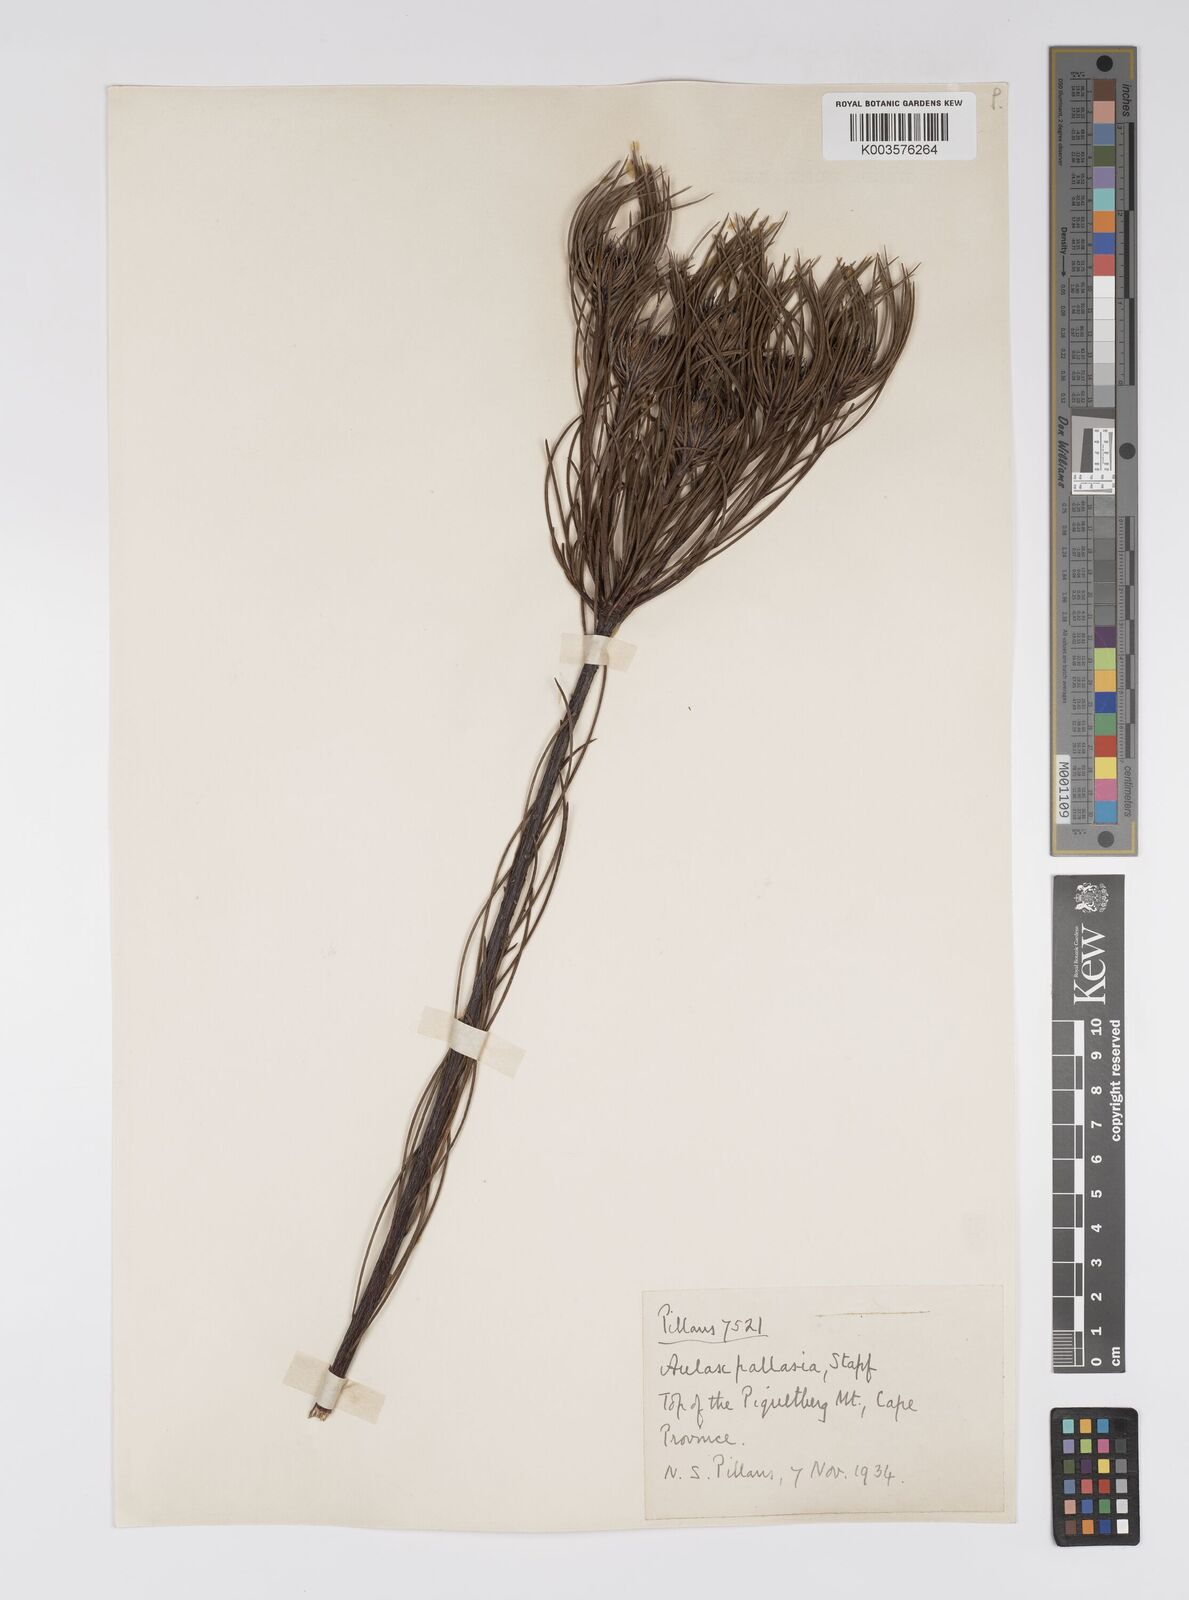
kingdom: Plantae
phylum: Tracheophyta
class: Magnoliopsida
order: Proteales
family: Proteaceae
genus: Aulax
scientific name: Aulax pallasia
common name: Needle-leaf featherbush
